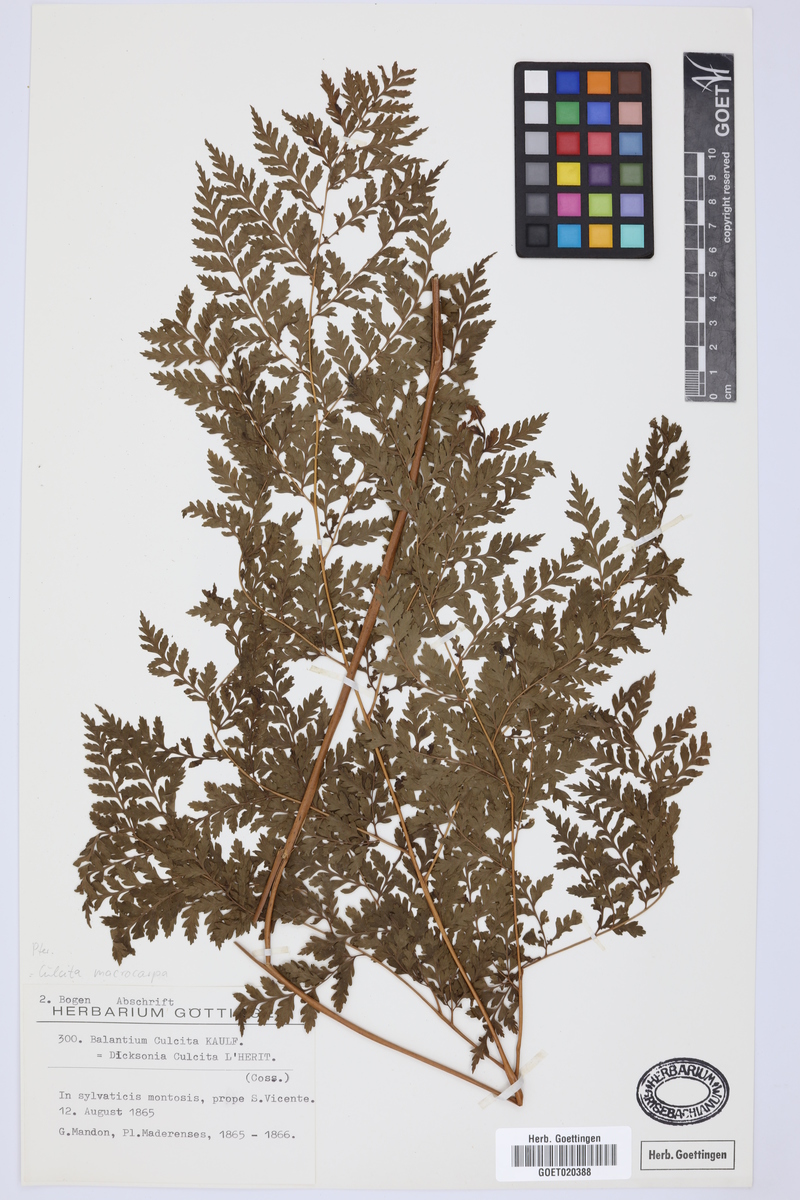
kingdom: Plantae
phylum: Tracheophyta
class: Polypodiopsida
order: Cyatheales
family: Culcitaceae
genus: Culcita
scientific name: Culcita macrocarpa
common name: Woolly tree fern
